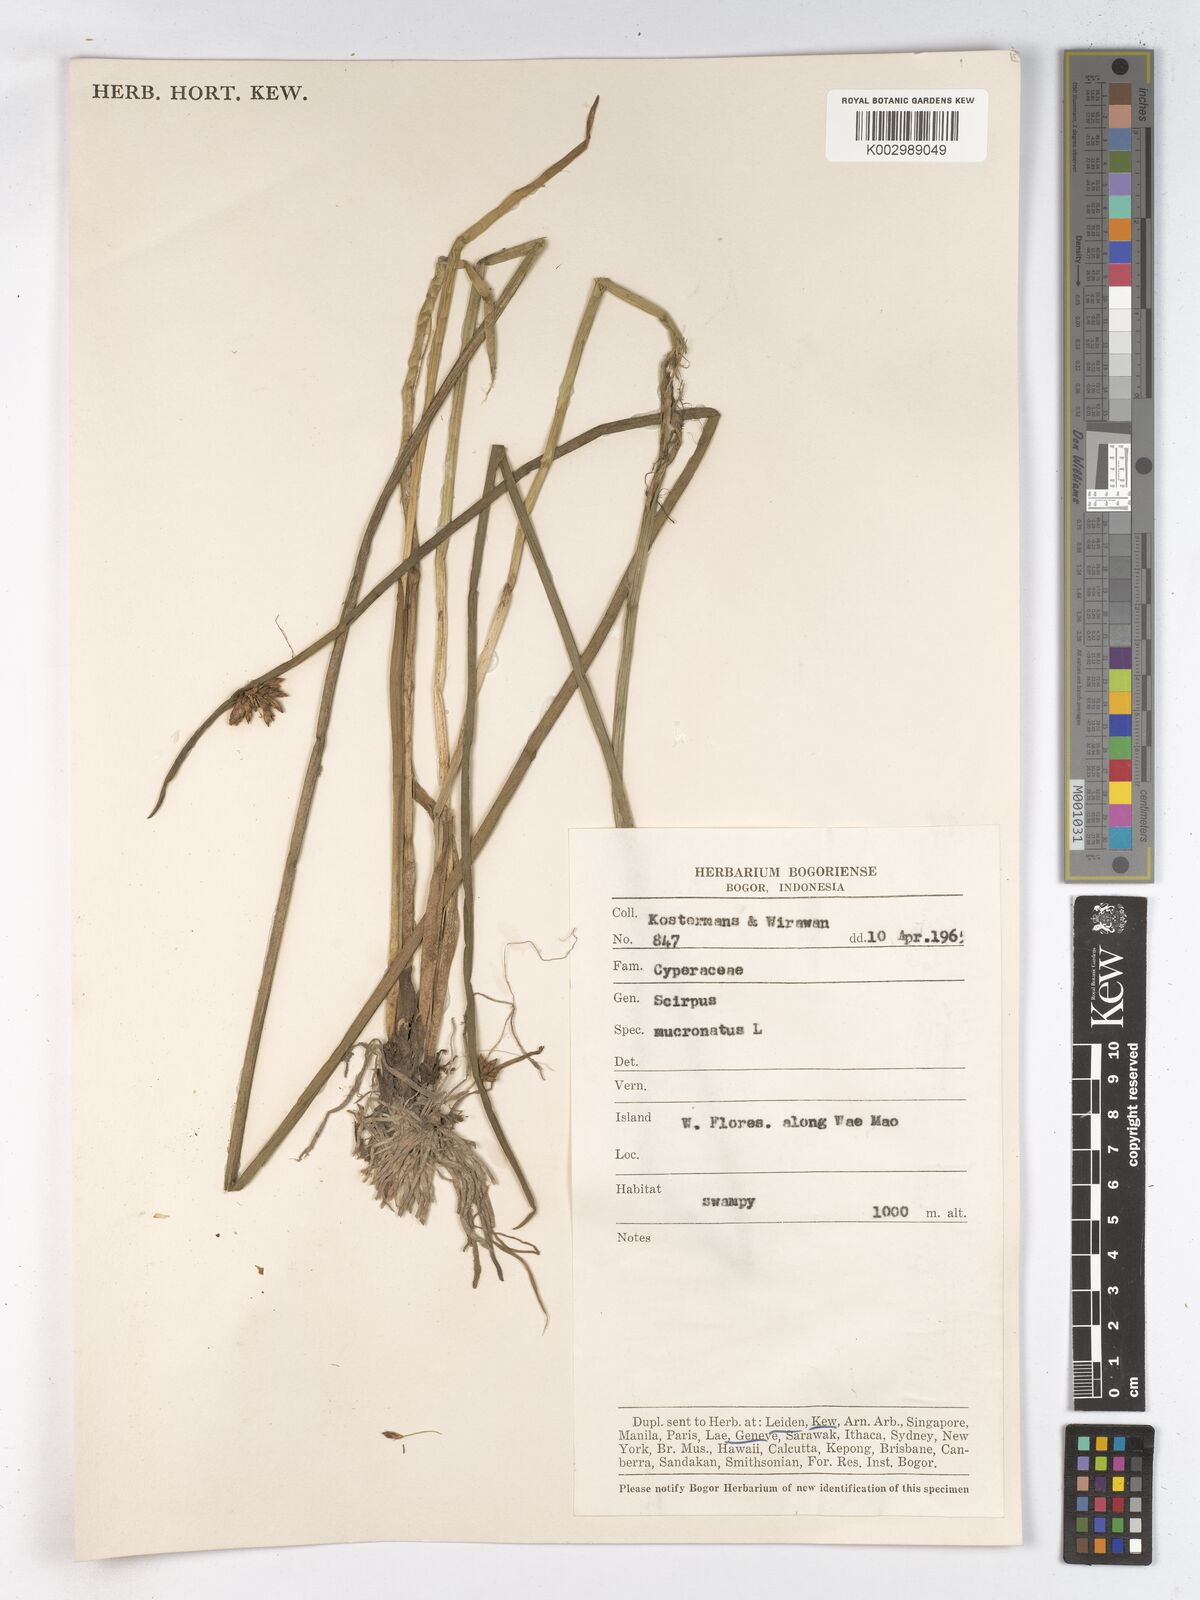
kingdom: Plantae
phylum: Tracheophyta
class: Liliopsida
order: Poales
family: Cyperaceae
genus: Schoenoplectiella
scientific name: Schoenoplectiella mucronata
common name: Bog bulrush
